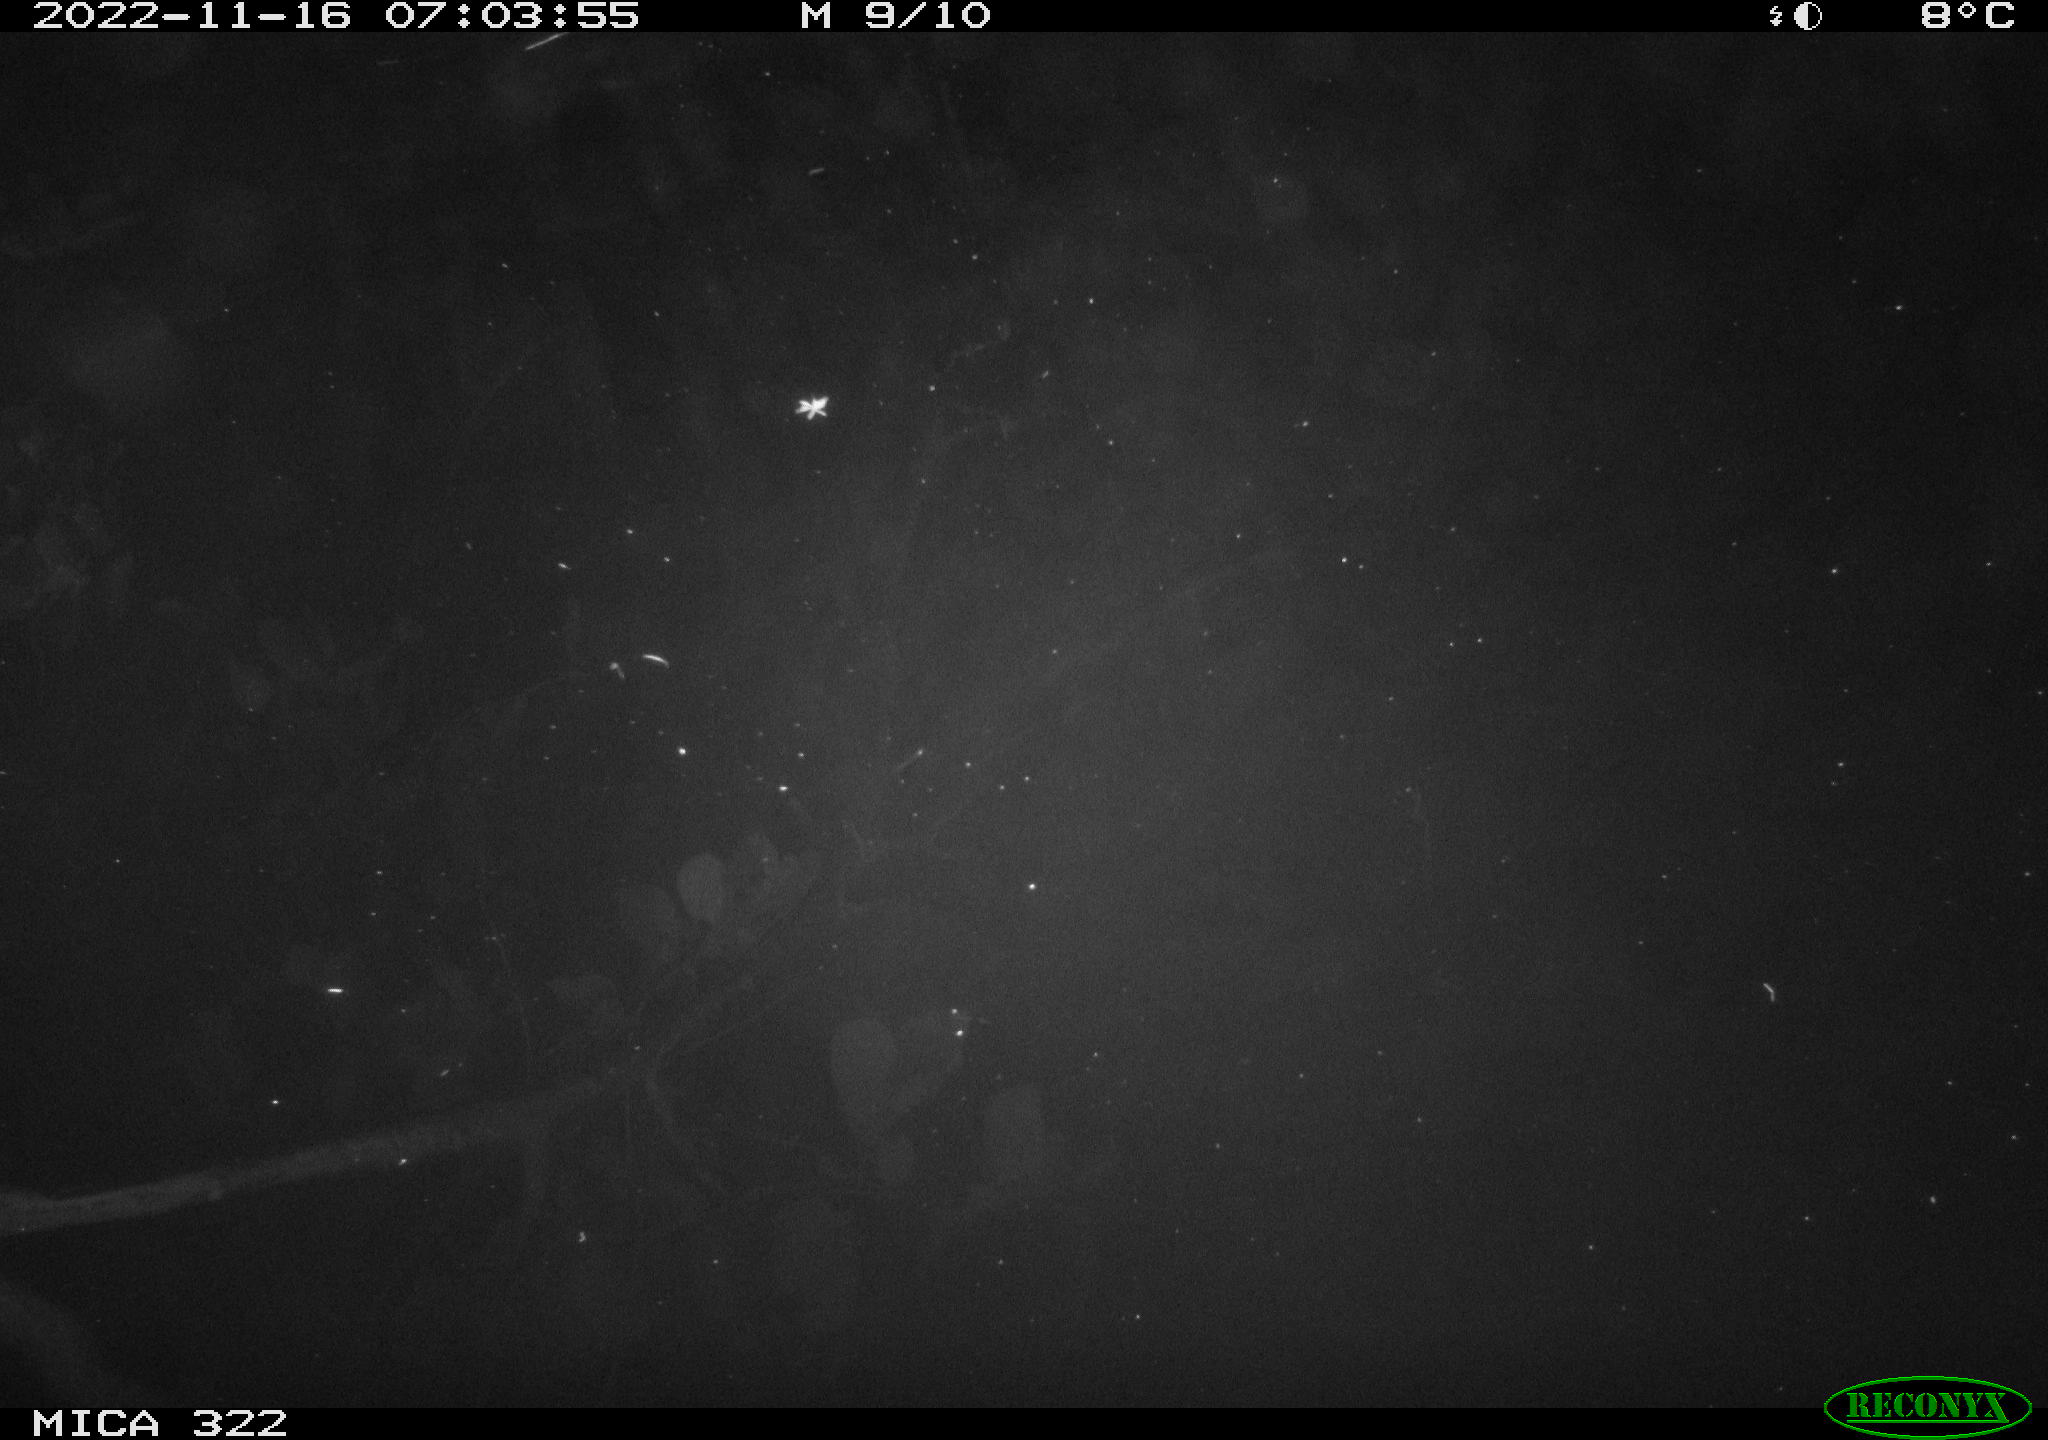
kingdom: Animalia
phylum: Chordata
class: Mammalia
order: Rodentia
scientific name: Rodentia
